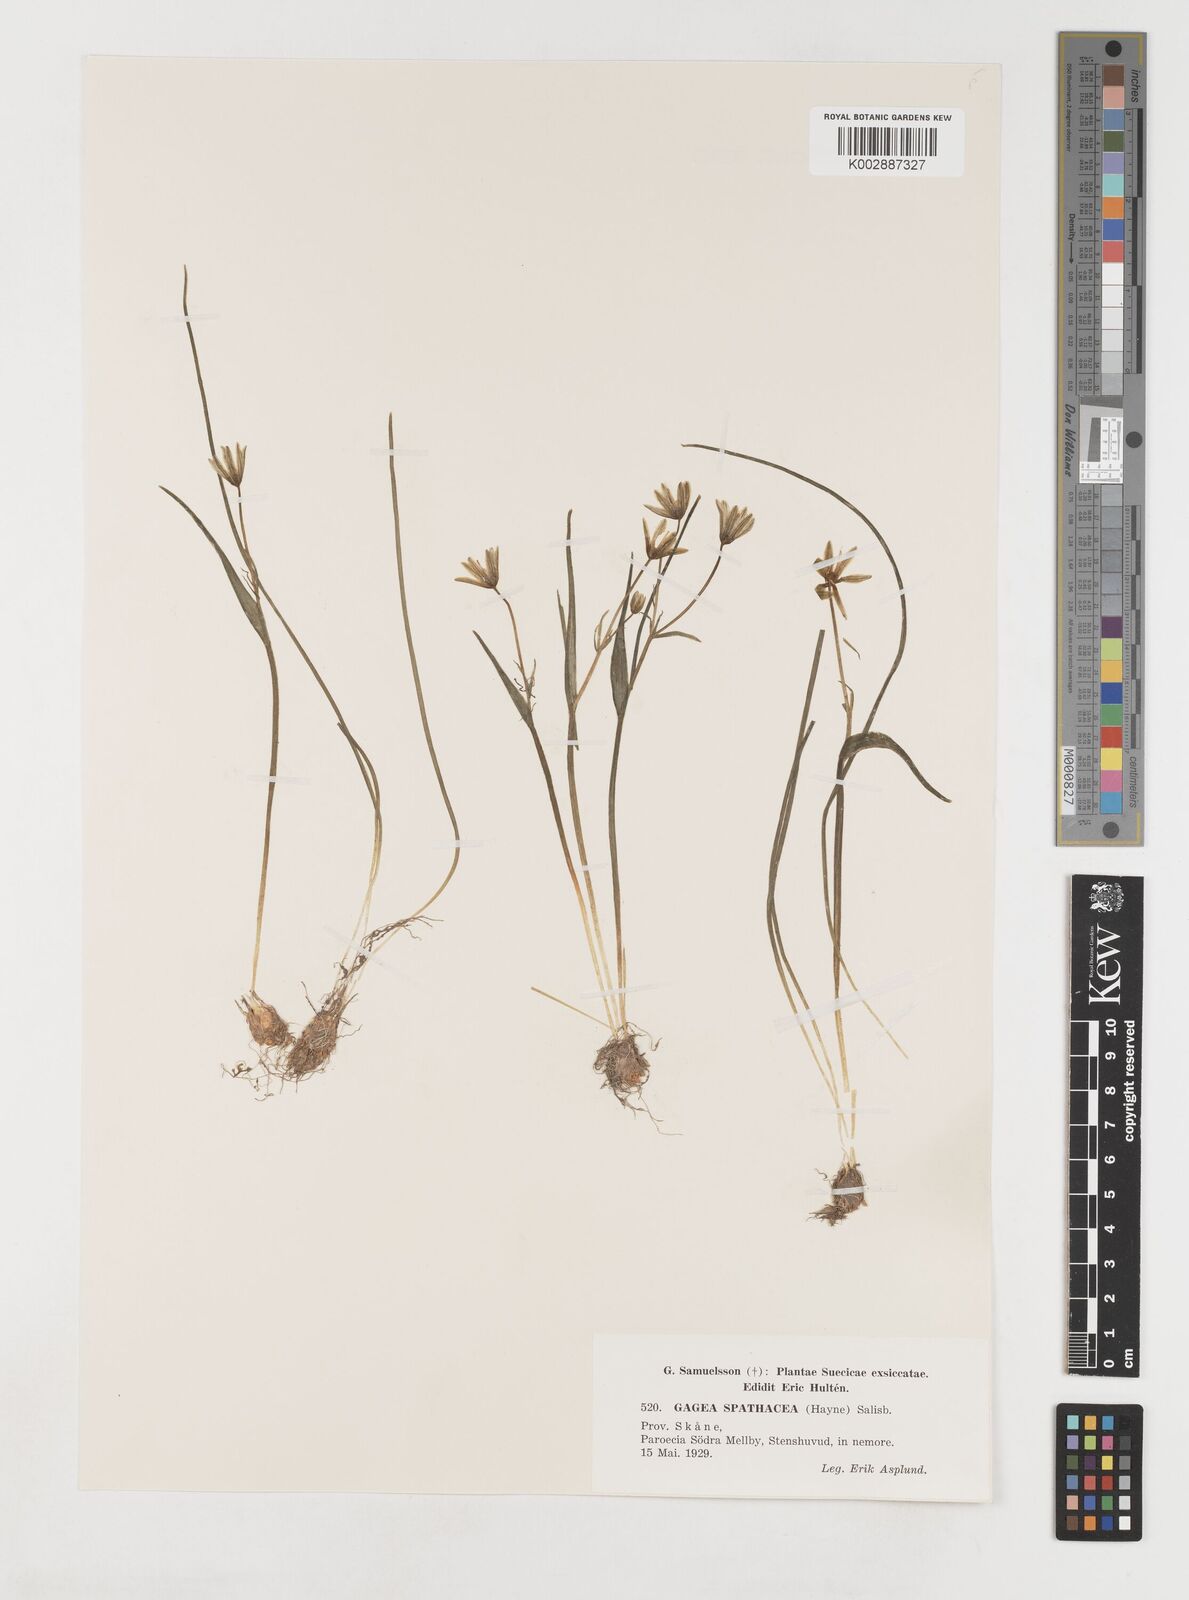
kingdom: Plantae
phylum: Tracheophyta
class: Liliopsida
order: Liliales
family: Liliaceae
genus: Gagea
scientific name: Gagea spathacea
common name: Belgian gagea
